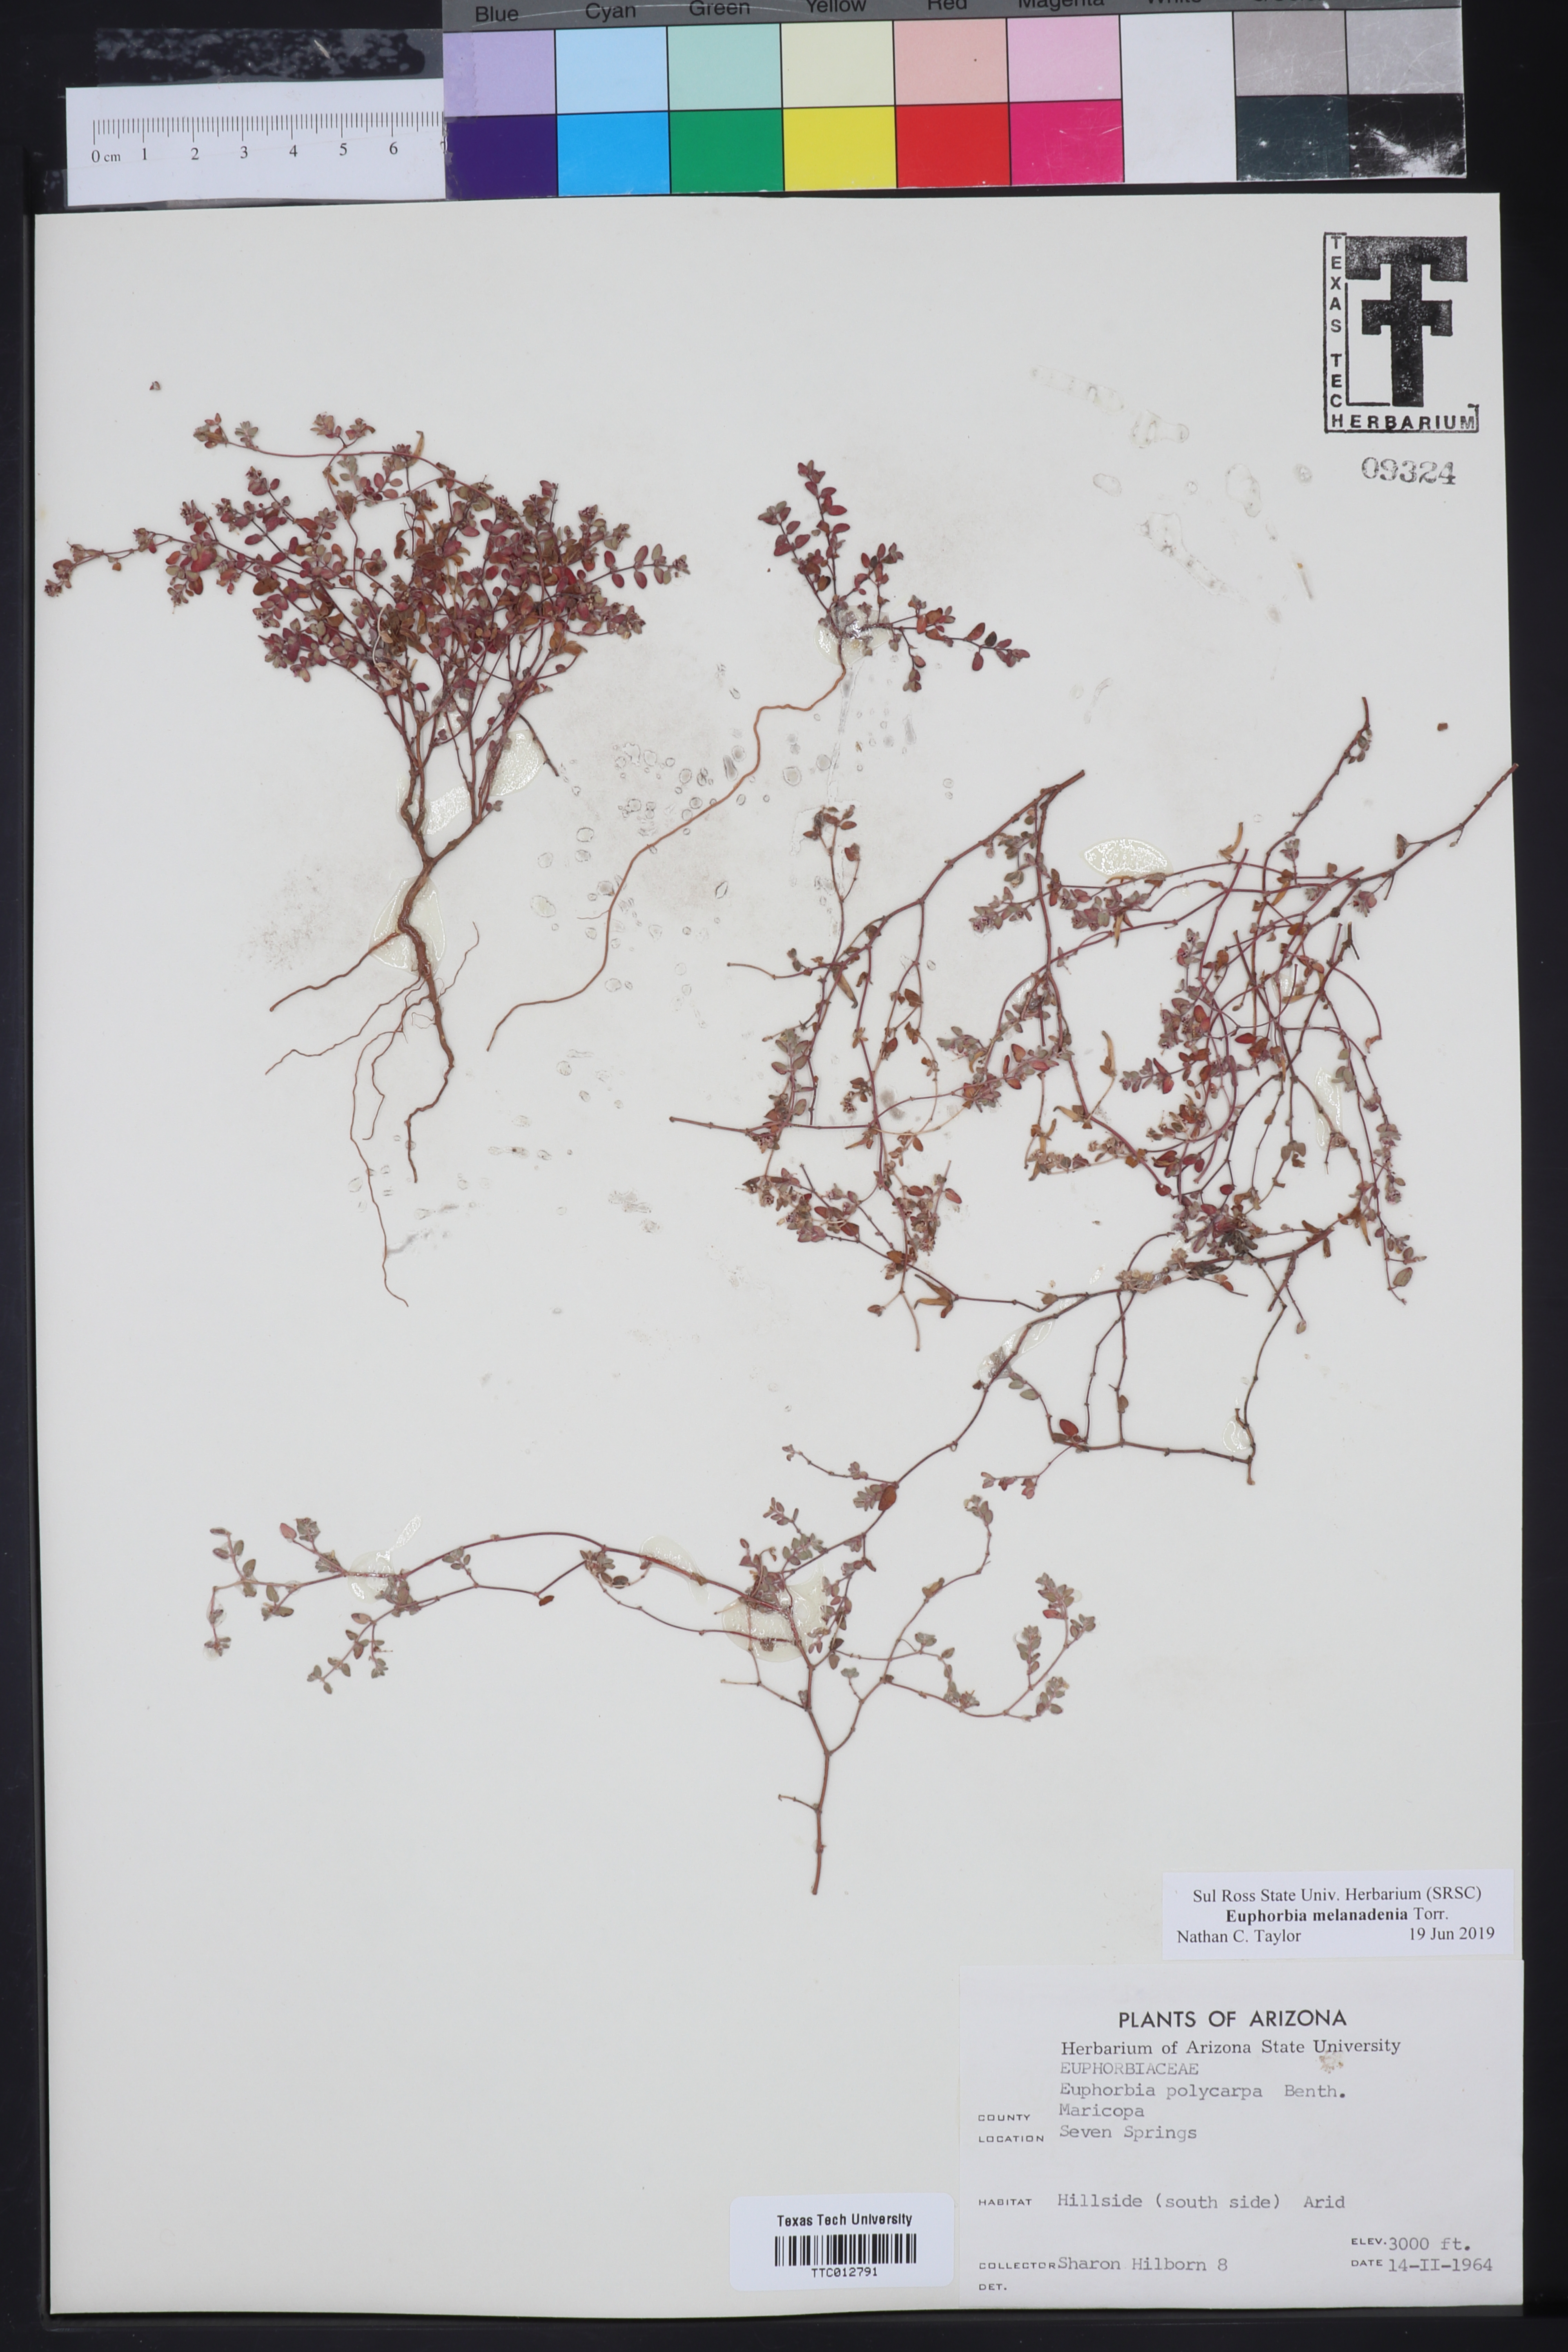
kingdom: Plantae
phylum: Tracheophyta
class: Magnoliopsida
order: Malpighiales
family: Euphorbiaceae
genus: Euphorbia
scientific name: Euphorbia melanadenia
